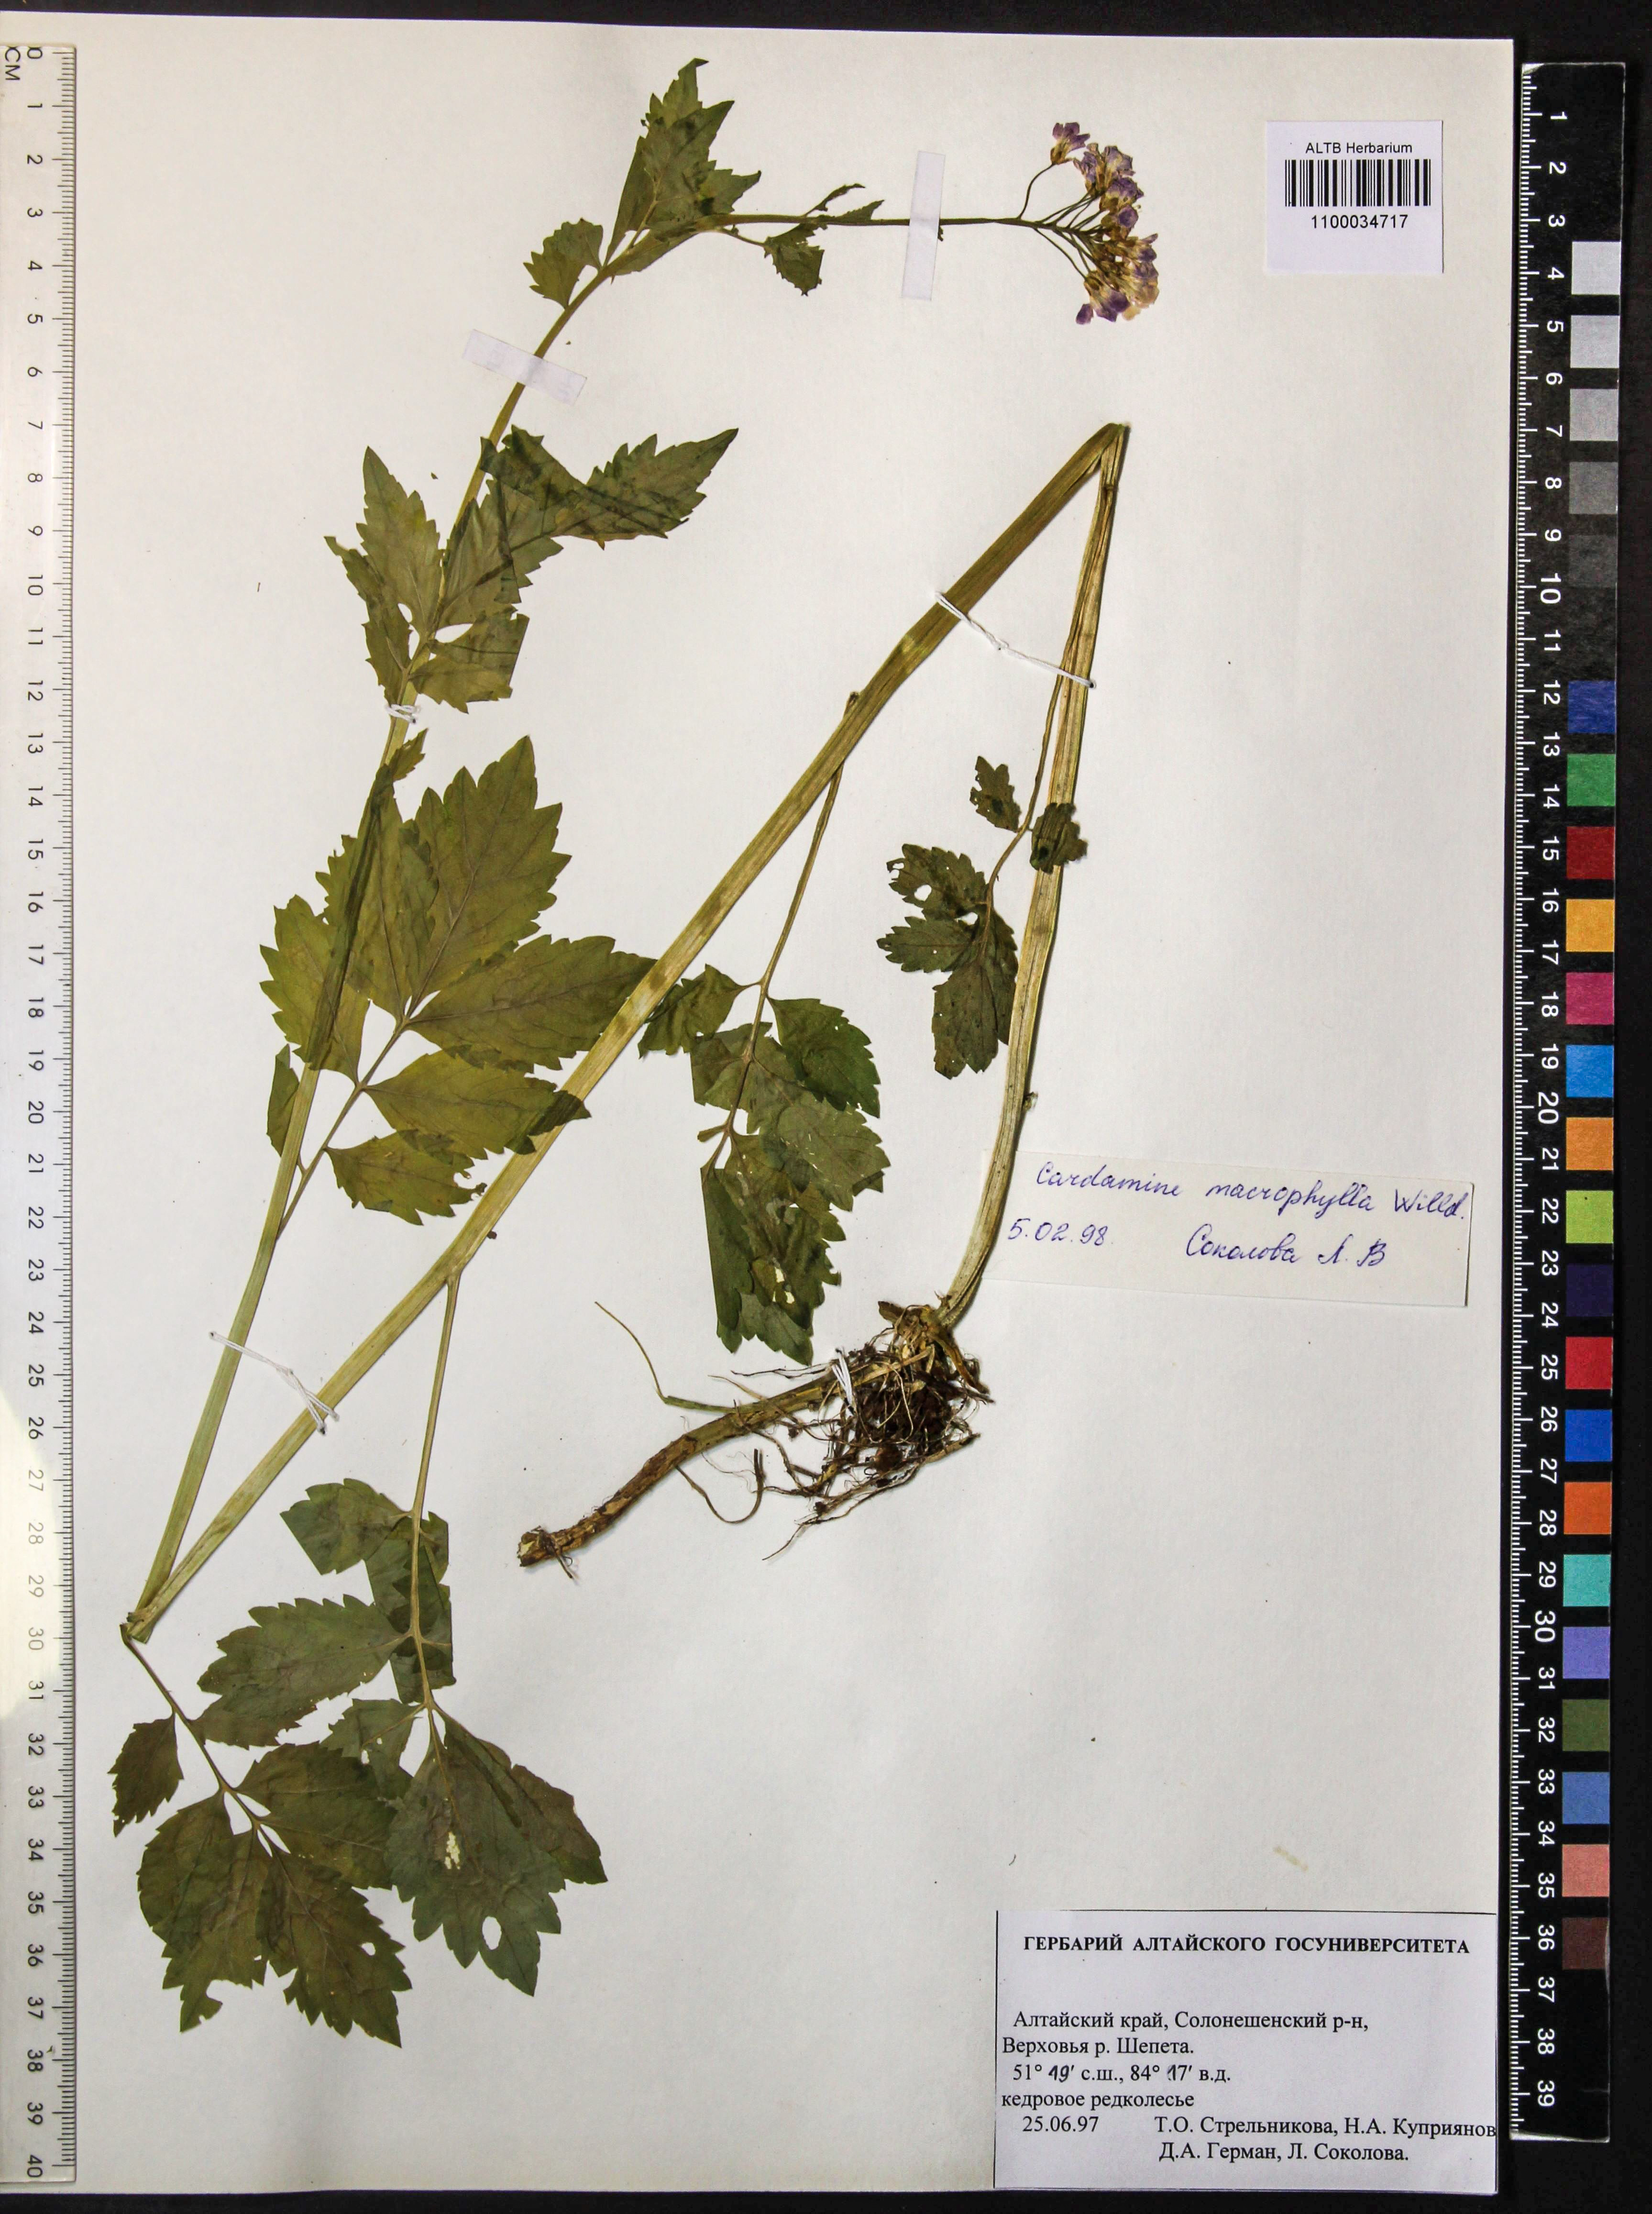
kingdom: Plantae
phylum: Tracheophyta
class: Magnoliopsida
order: Brassicales
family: Brassicaceae
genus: Cardamine
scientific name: Cardamine macrophylla
